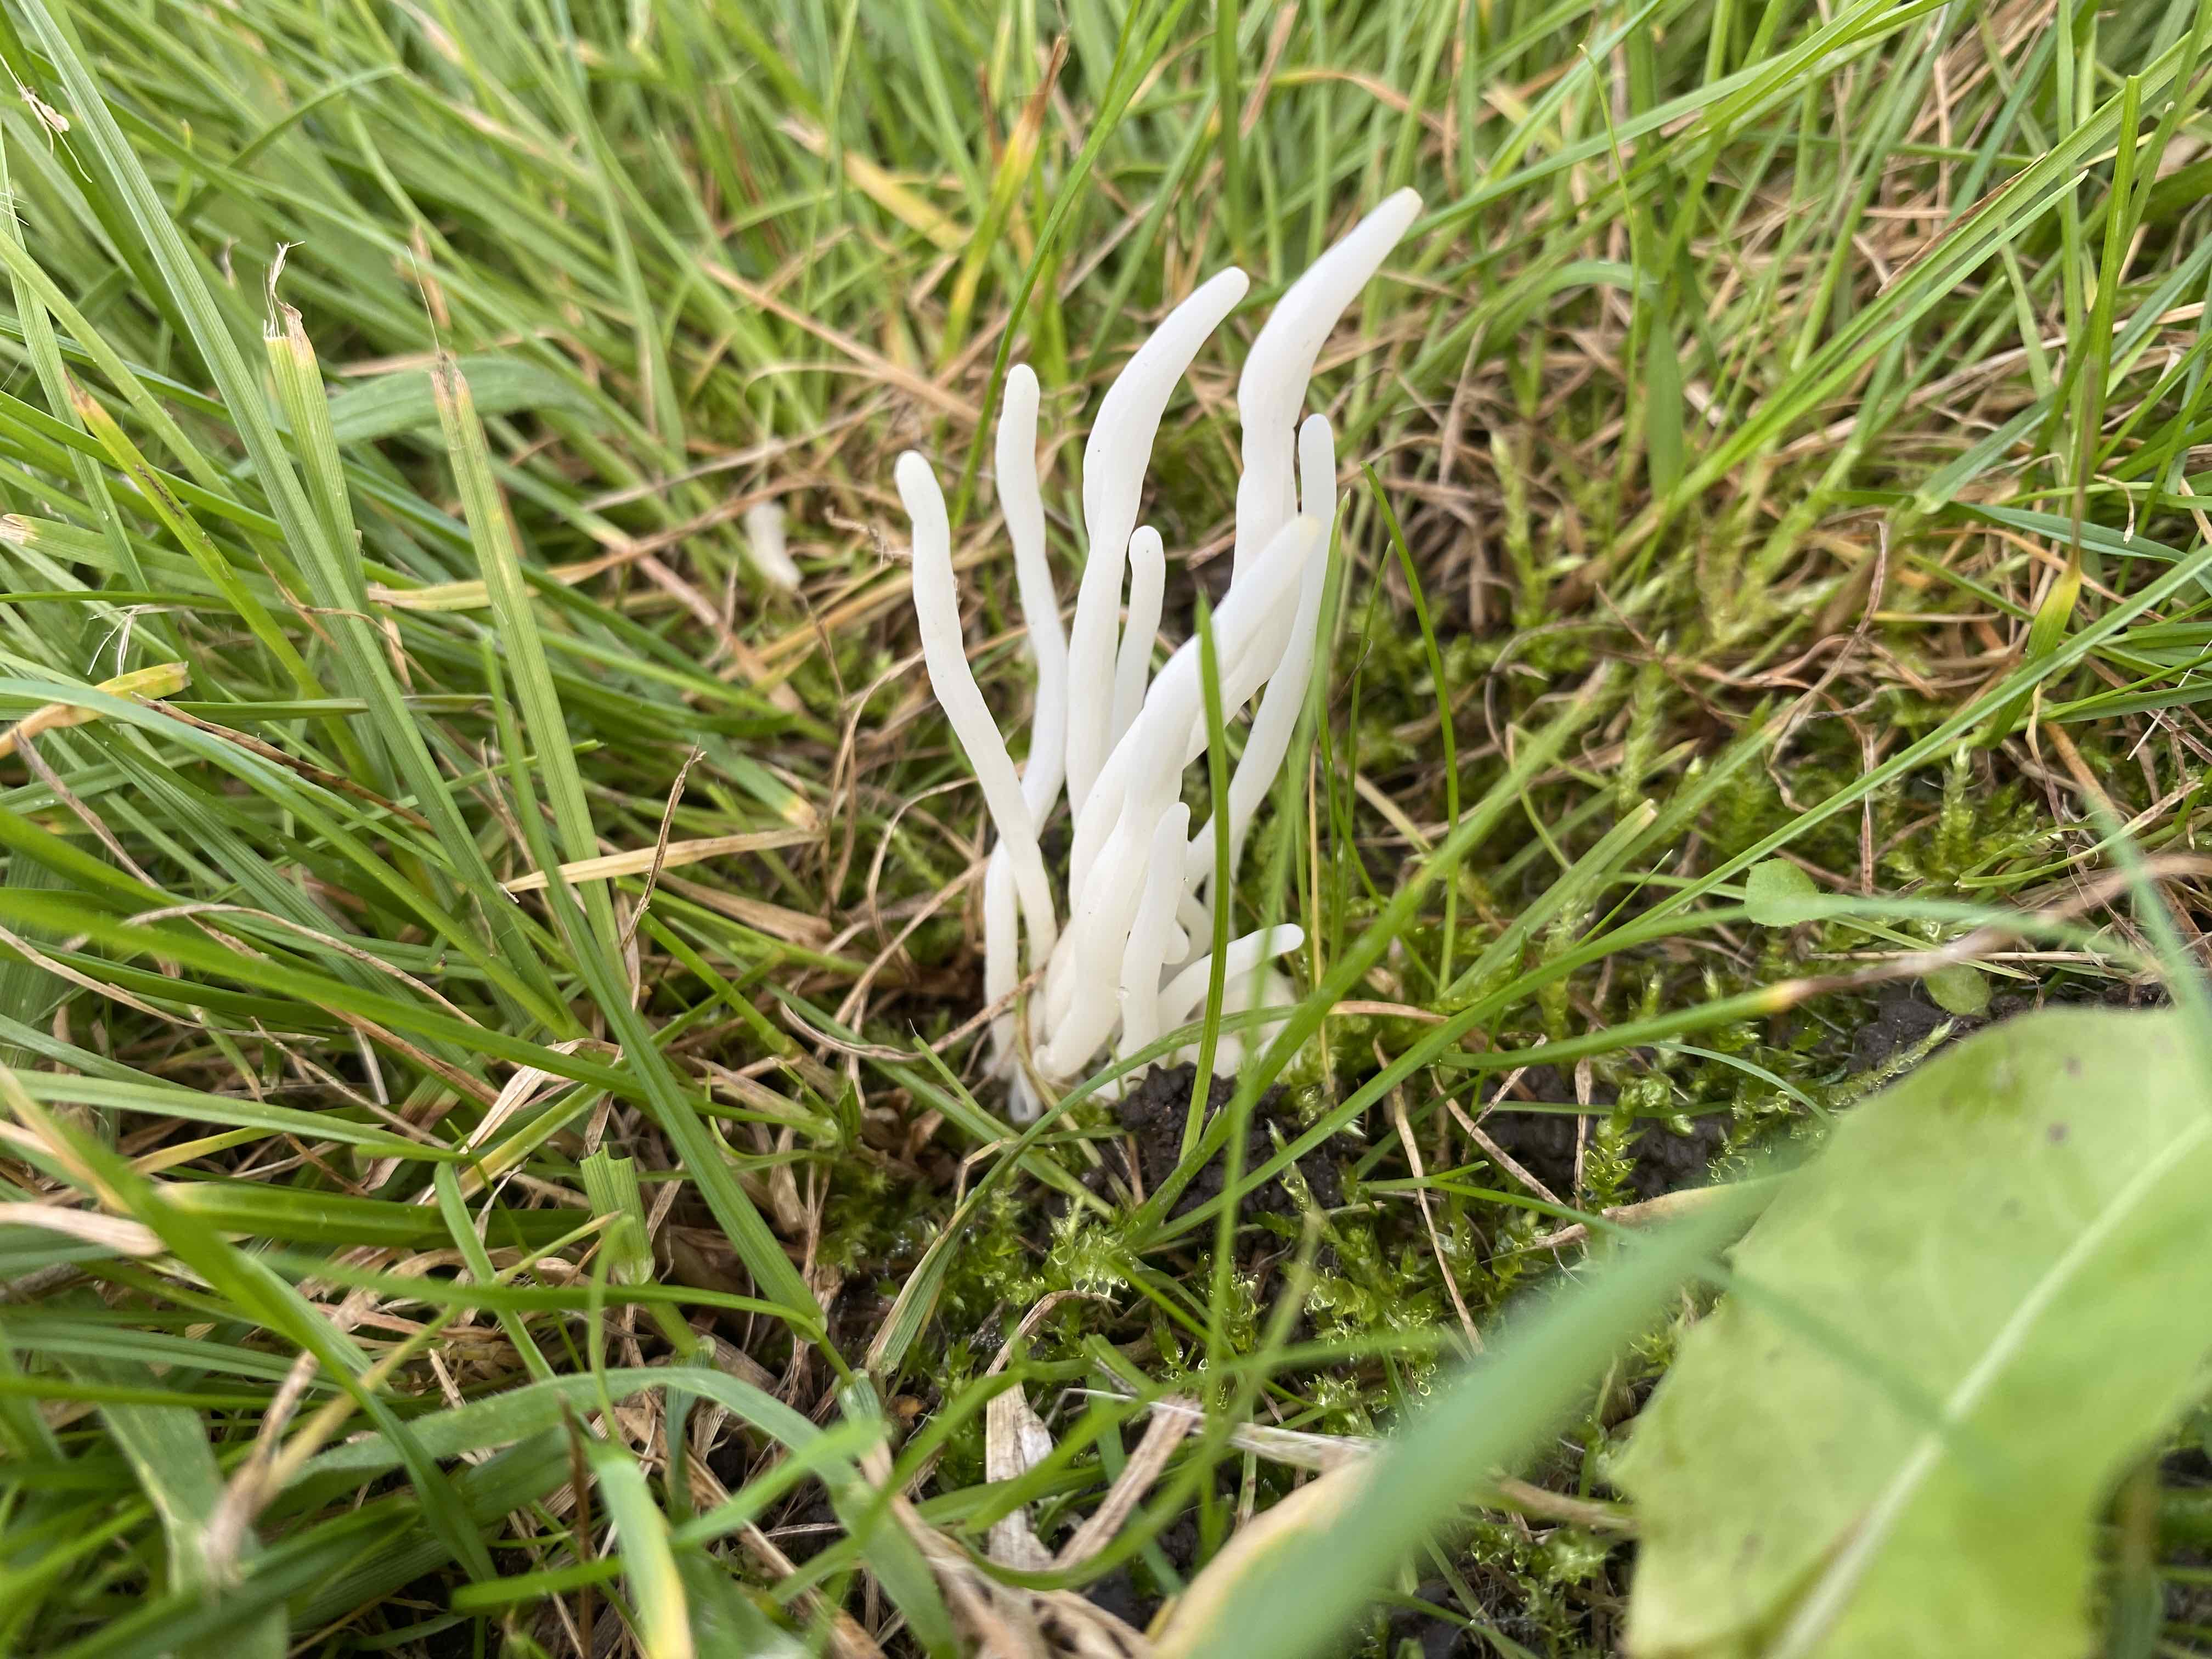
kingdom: Fungi
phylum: Basidiomycota
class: Agaricomycetes
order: Agaricales
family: Clavariaceae
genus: Clavaria
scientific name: Clavaria fragilis
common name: bugtet køllesvamp
